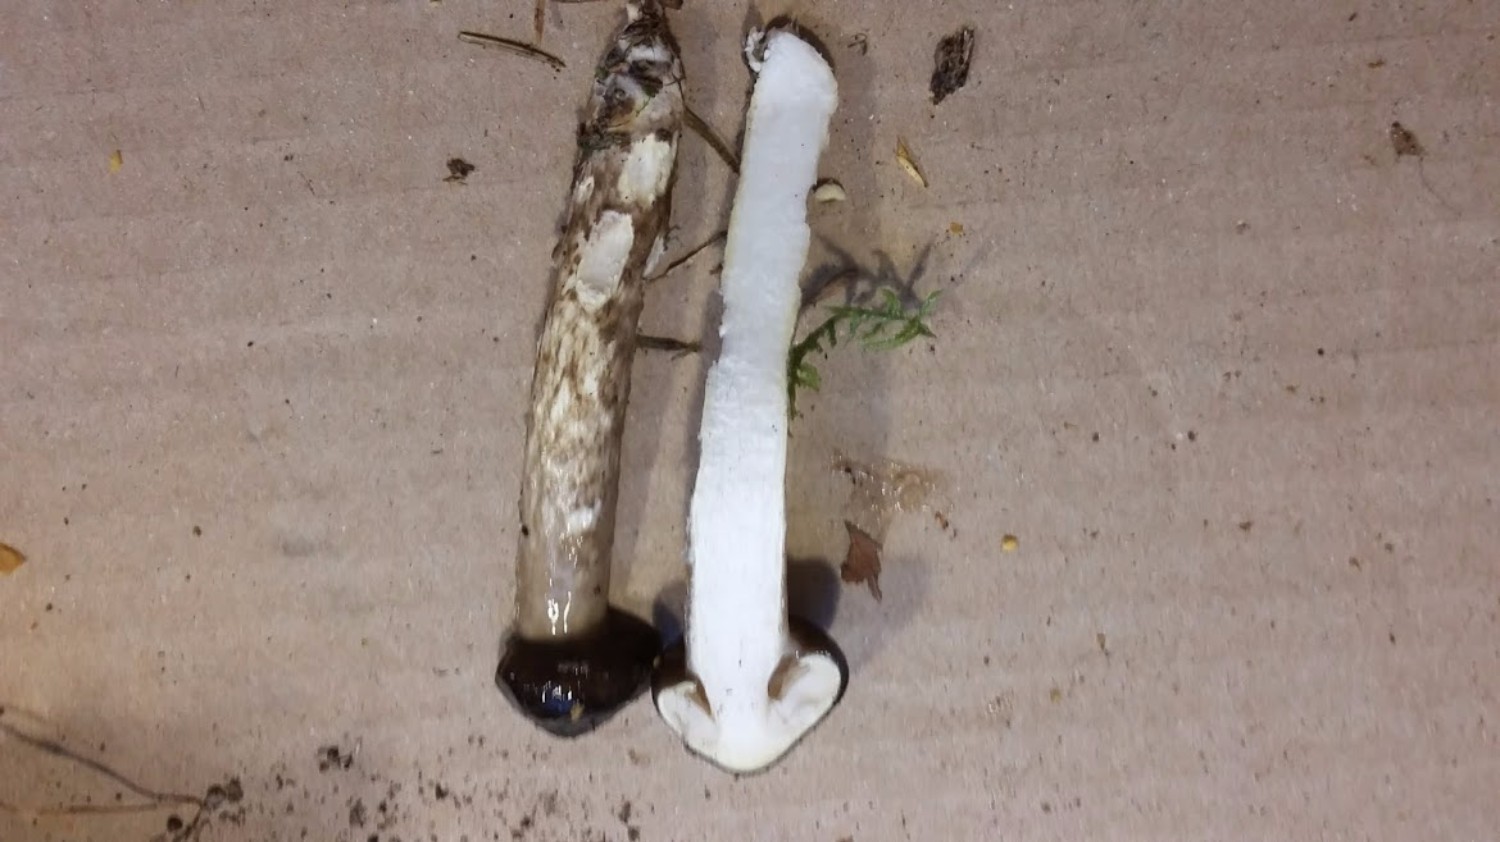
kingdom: Fungi
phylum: Basidiomycota
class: Agaricomycetes
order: Agaricales
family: Hygrophoraceae
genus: Hygrophorus
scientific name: Hygrophorus olivaceoalbus
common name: hvidbrun sneglehat
